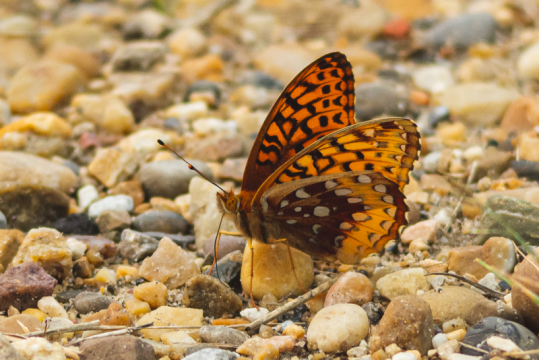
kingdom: Animalia
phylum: Arthropoda
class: Insecta
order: Lepidoptera
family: Nymphalidae
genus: Speyeria
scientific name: Speyeria cybele
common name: Great Spangled Fritillary
